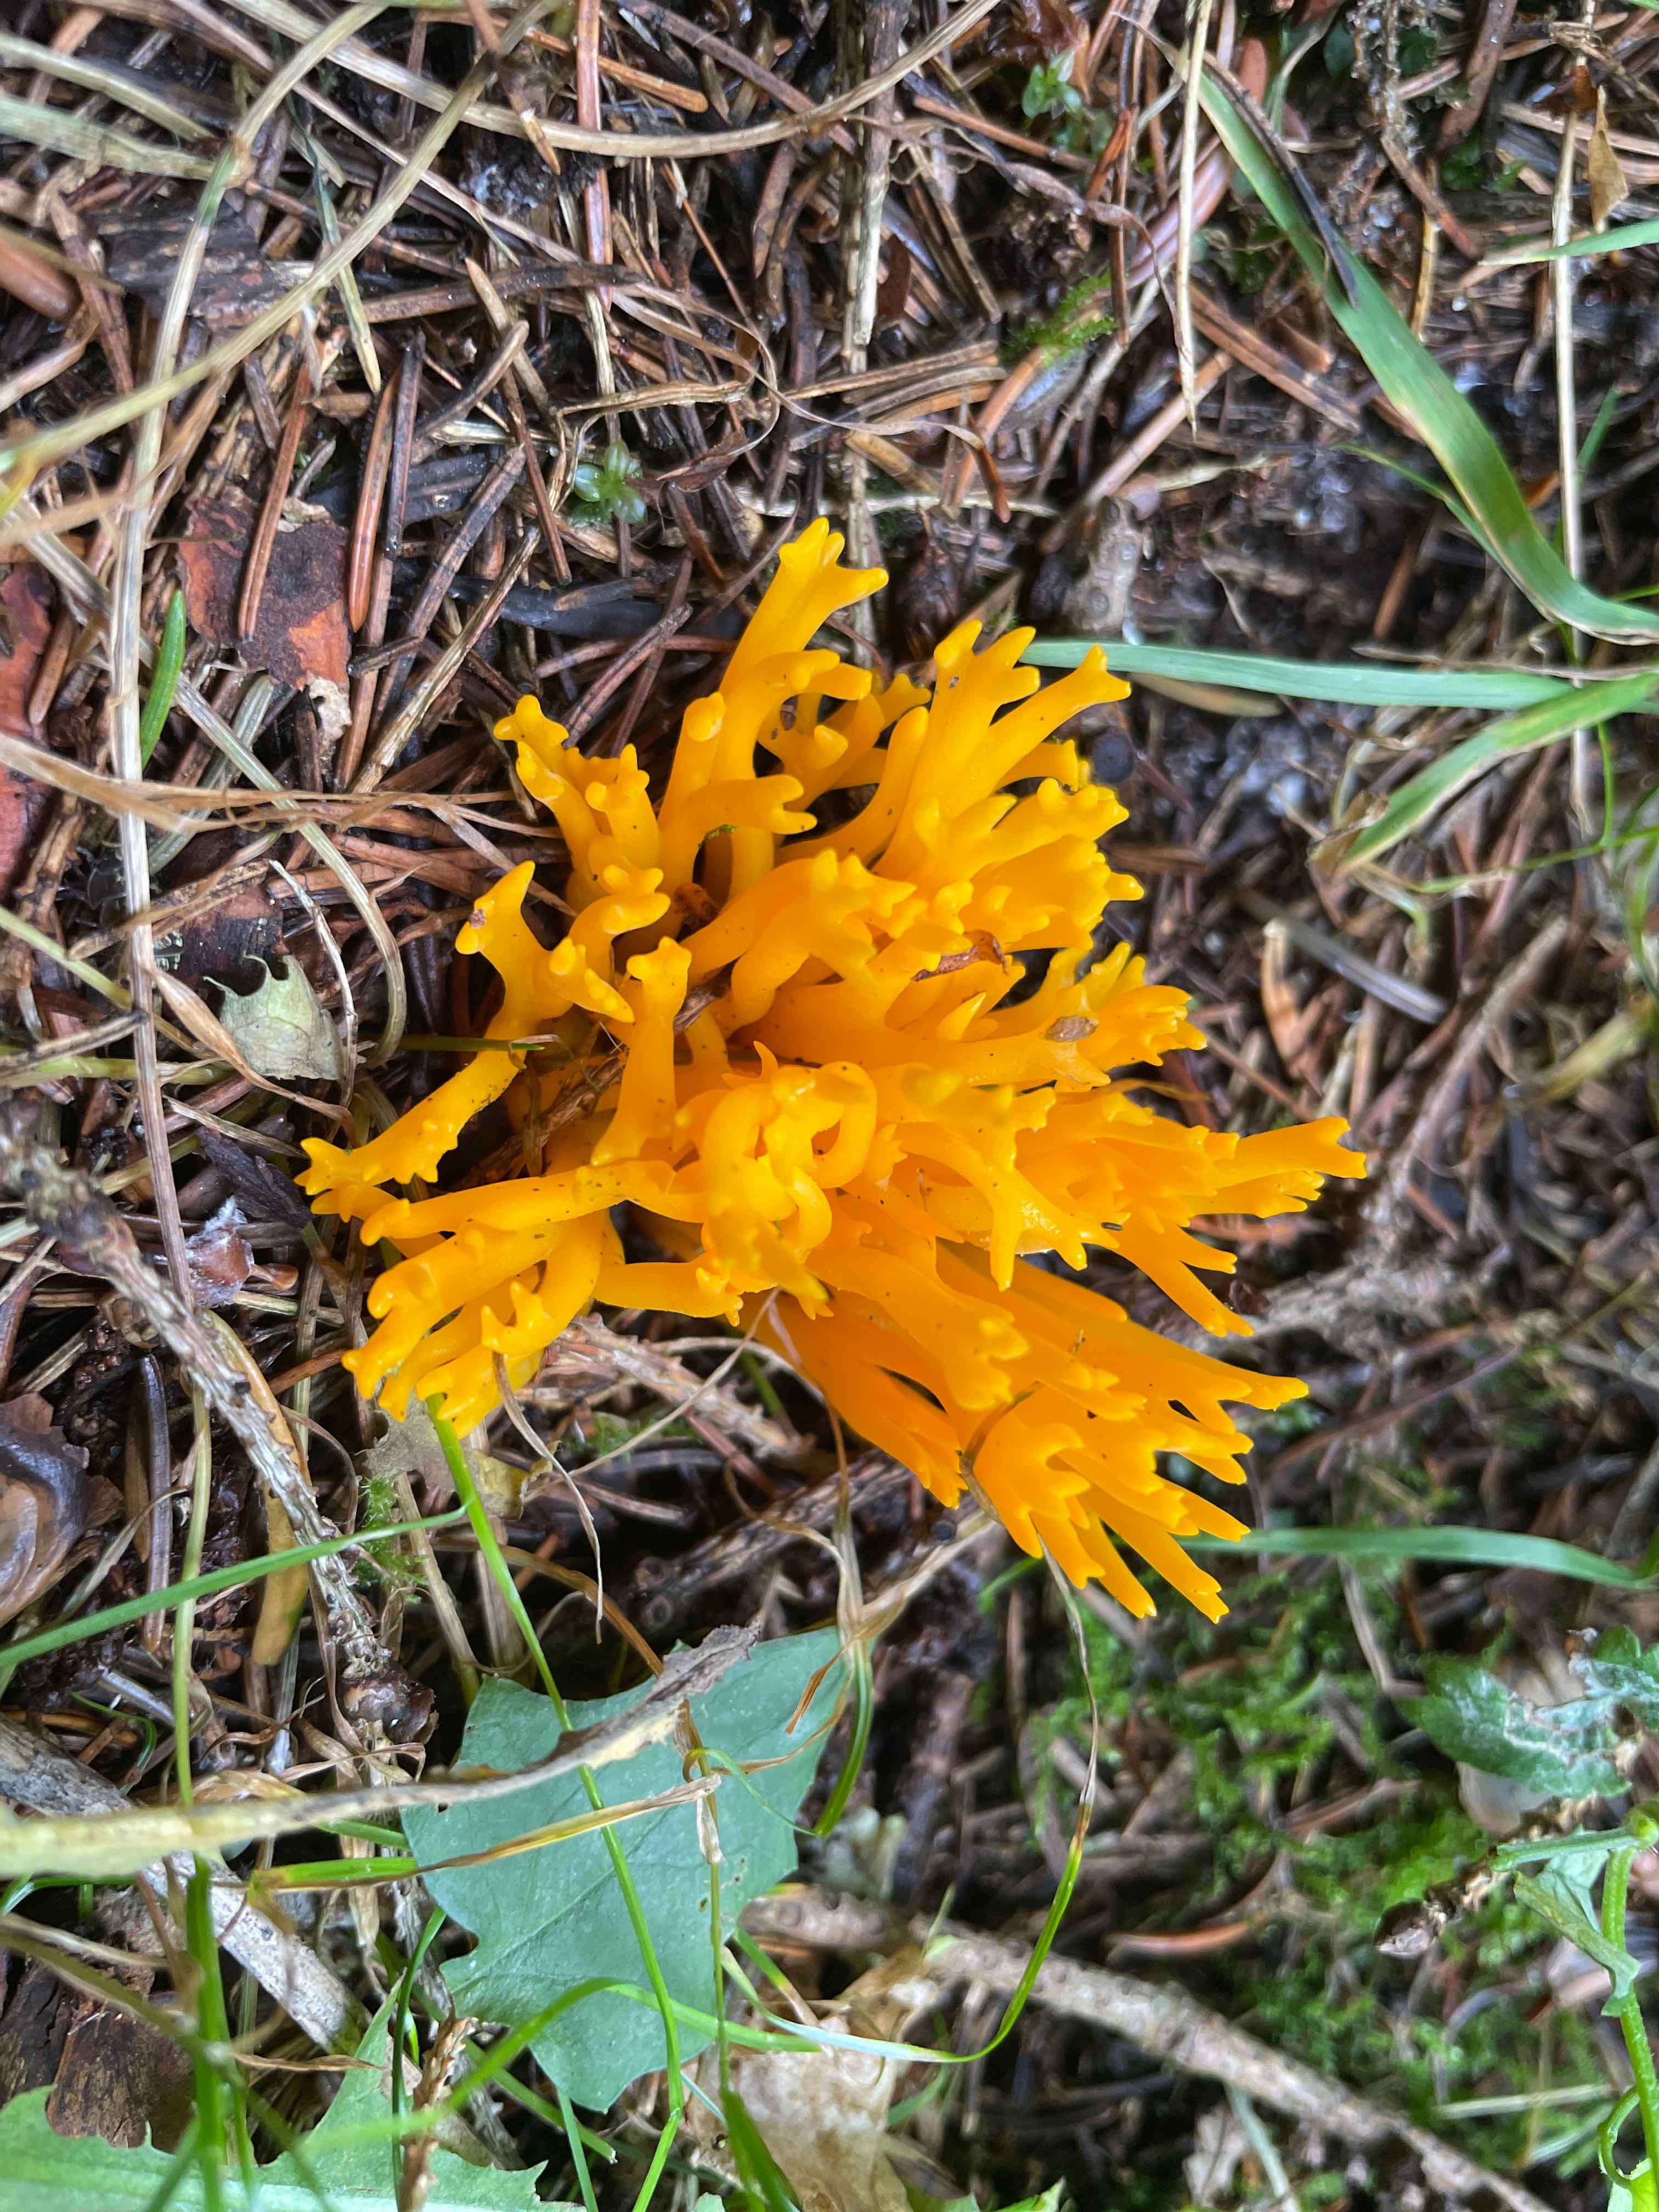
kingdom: Fungi
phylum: Basidiomycota
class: Dacrymycetes
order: Dacrymycetales
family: Dacrymycetaceae
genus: Calocera
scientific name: Calocera viscosa
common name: almindelig guldgaffel
